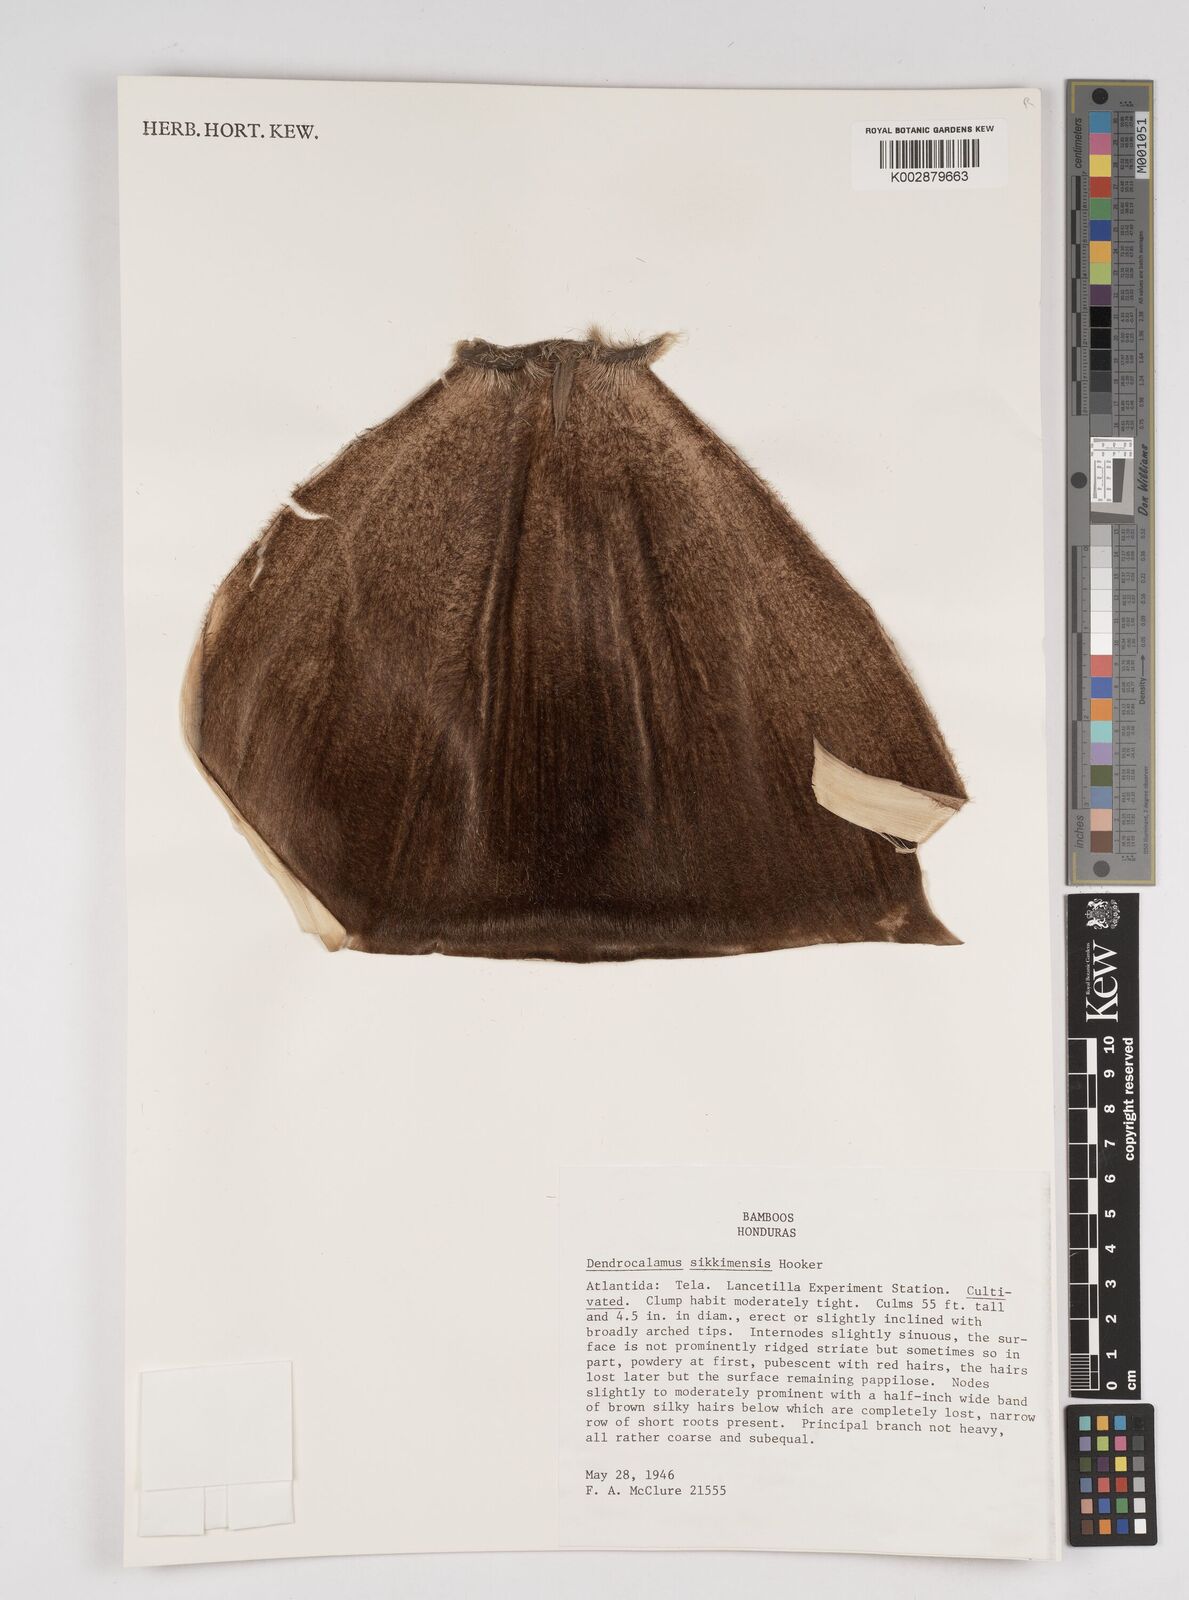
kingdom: Plantae
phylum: Tracheophyta
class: Liliopsida
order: Poales
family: Poaceae
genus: Dendrocalamus
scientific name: Dendrocalamus sikkimensis
